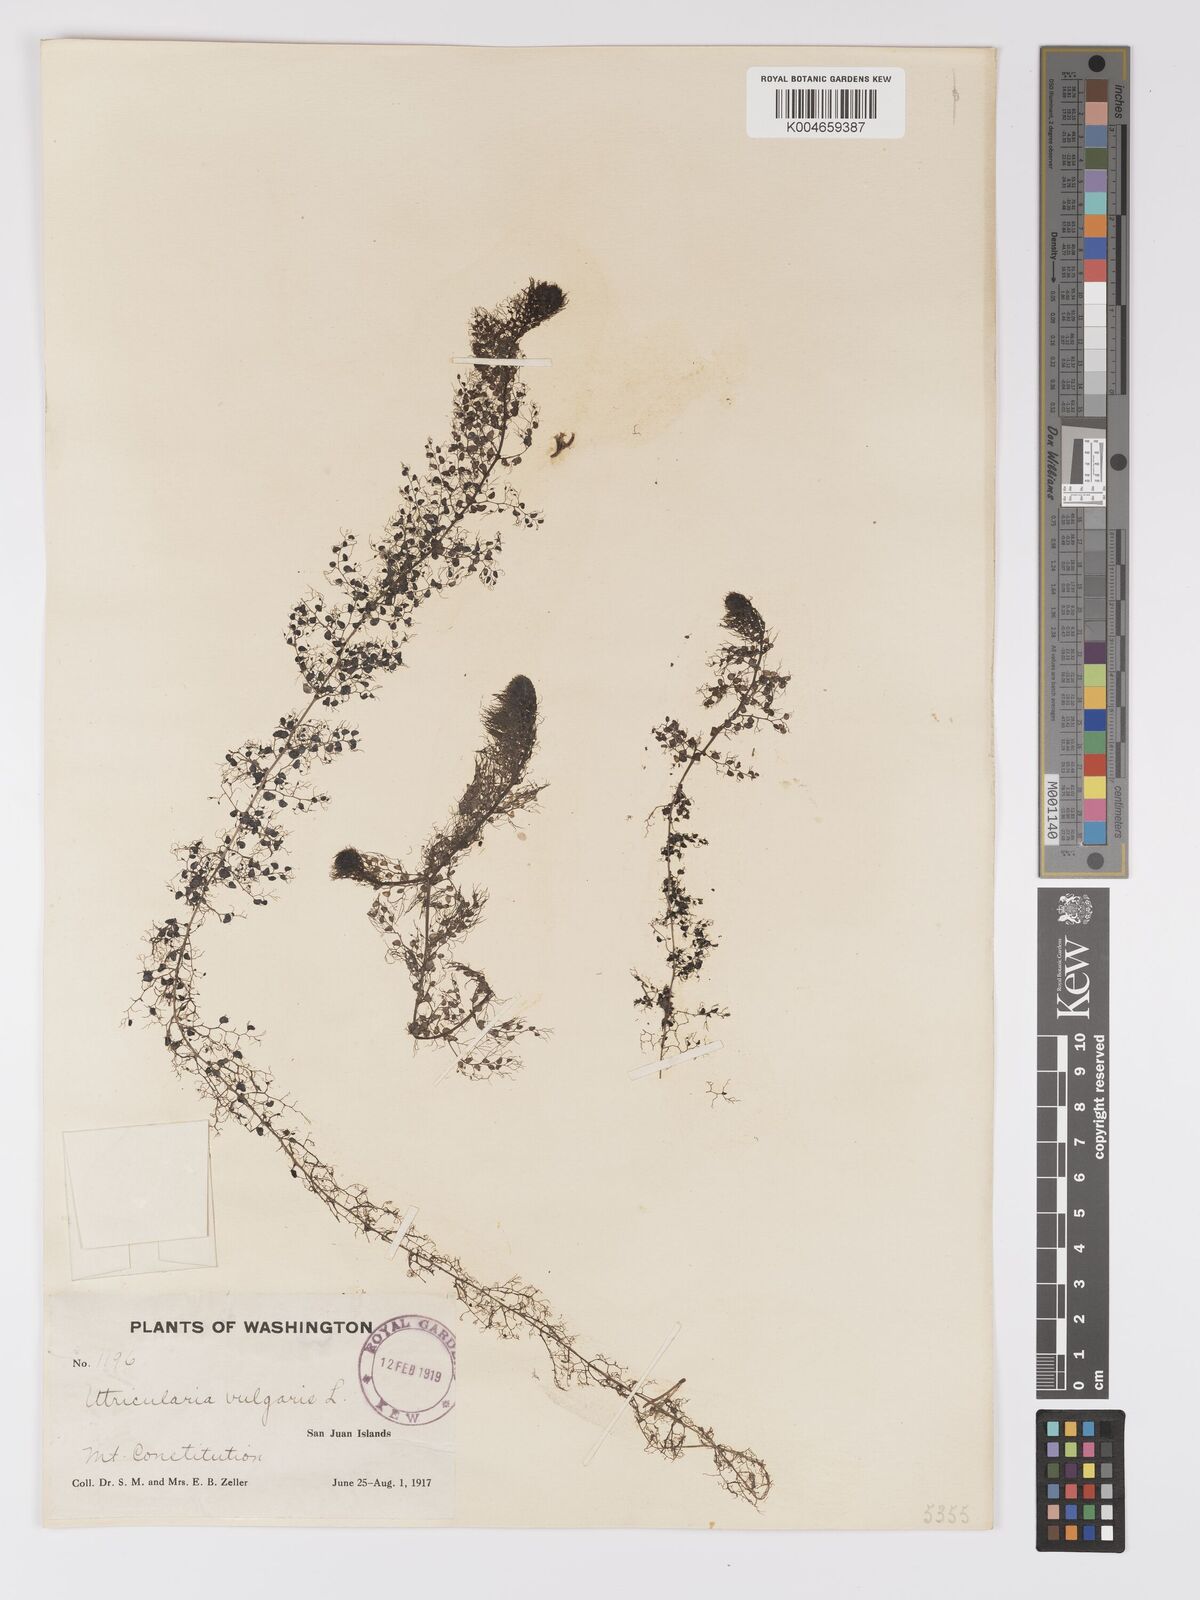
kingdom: Plantae
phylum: Tracheophyta
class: Magnoliopsida
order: Lamiales
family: Lentibulariaceae
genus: Utricularia
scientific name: Utricularia macrorhiza
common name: Common bladderwort
